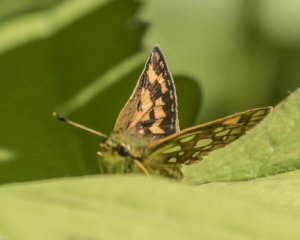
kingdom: Animalia
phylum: Arthropoda
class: Insecta
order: Lepidoptera
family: Hesperiidae
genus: Carterocephalus
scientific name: Carterocephalus palaemon
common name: Chequered Skipper
